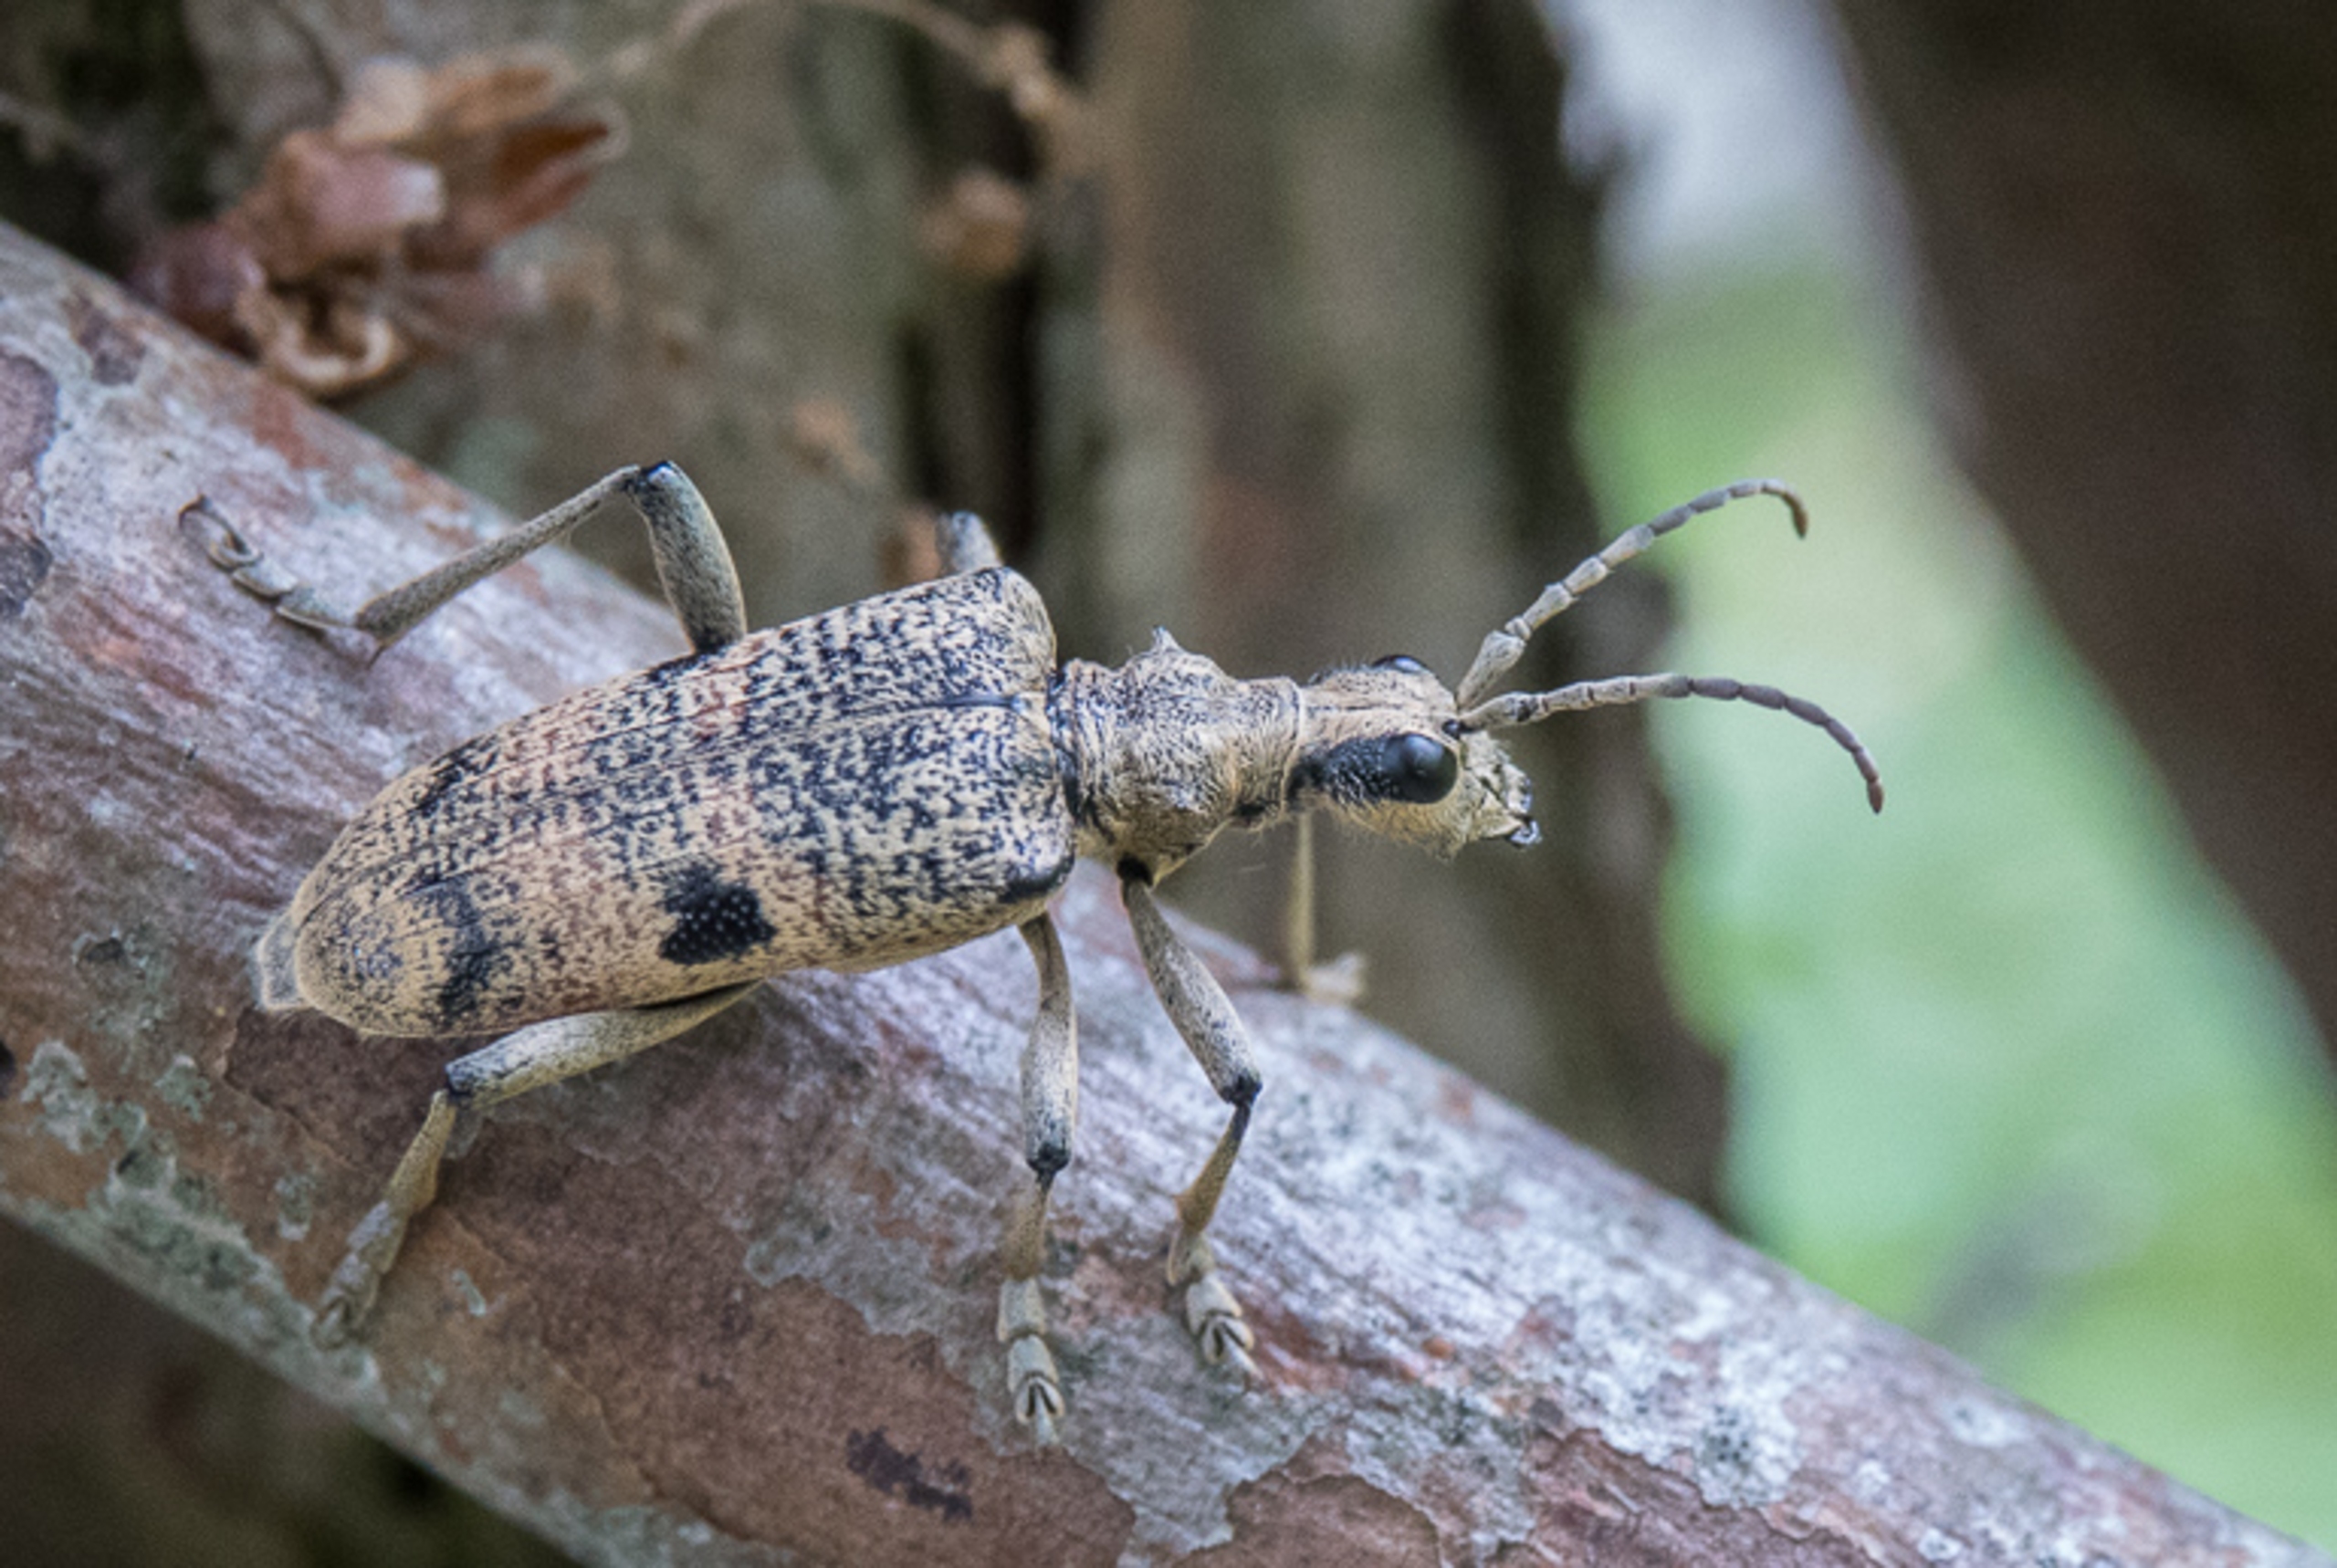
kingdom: Animalia
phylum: Arthropoda
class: Insecta
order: Coleoptera
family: Cerambycidae
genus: Rhagium
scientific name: Rhagium mordax
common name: Blankplettet tandbuk
